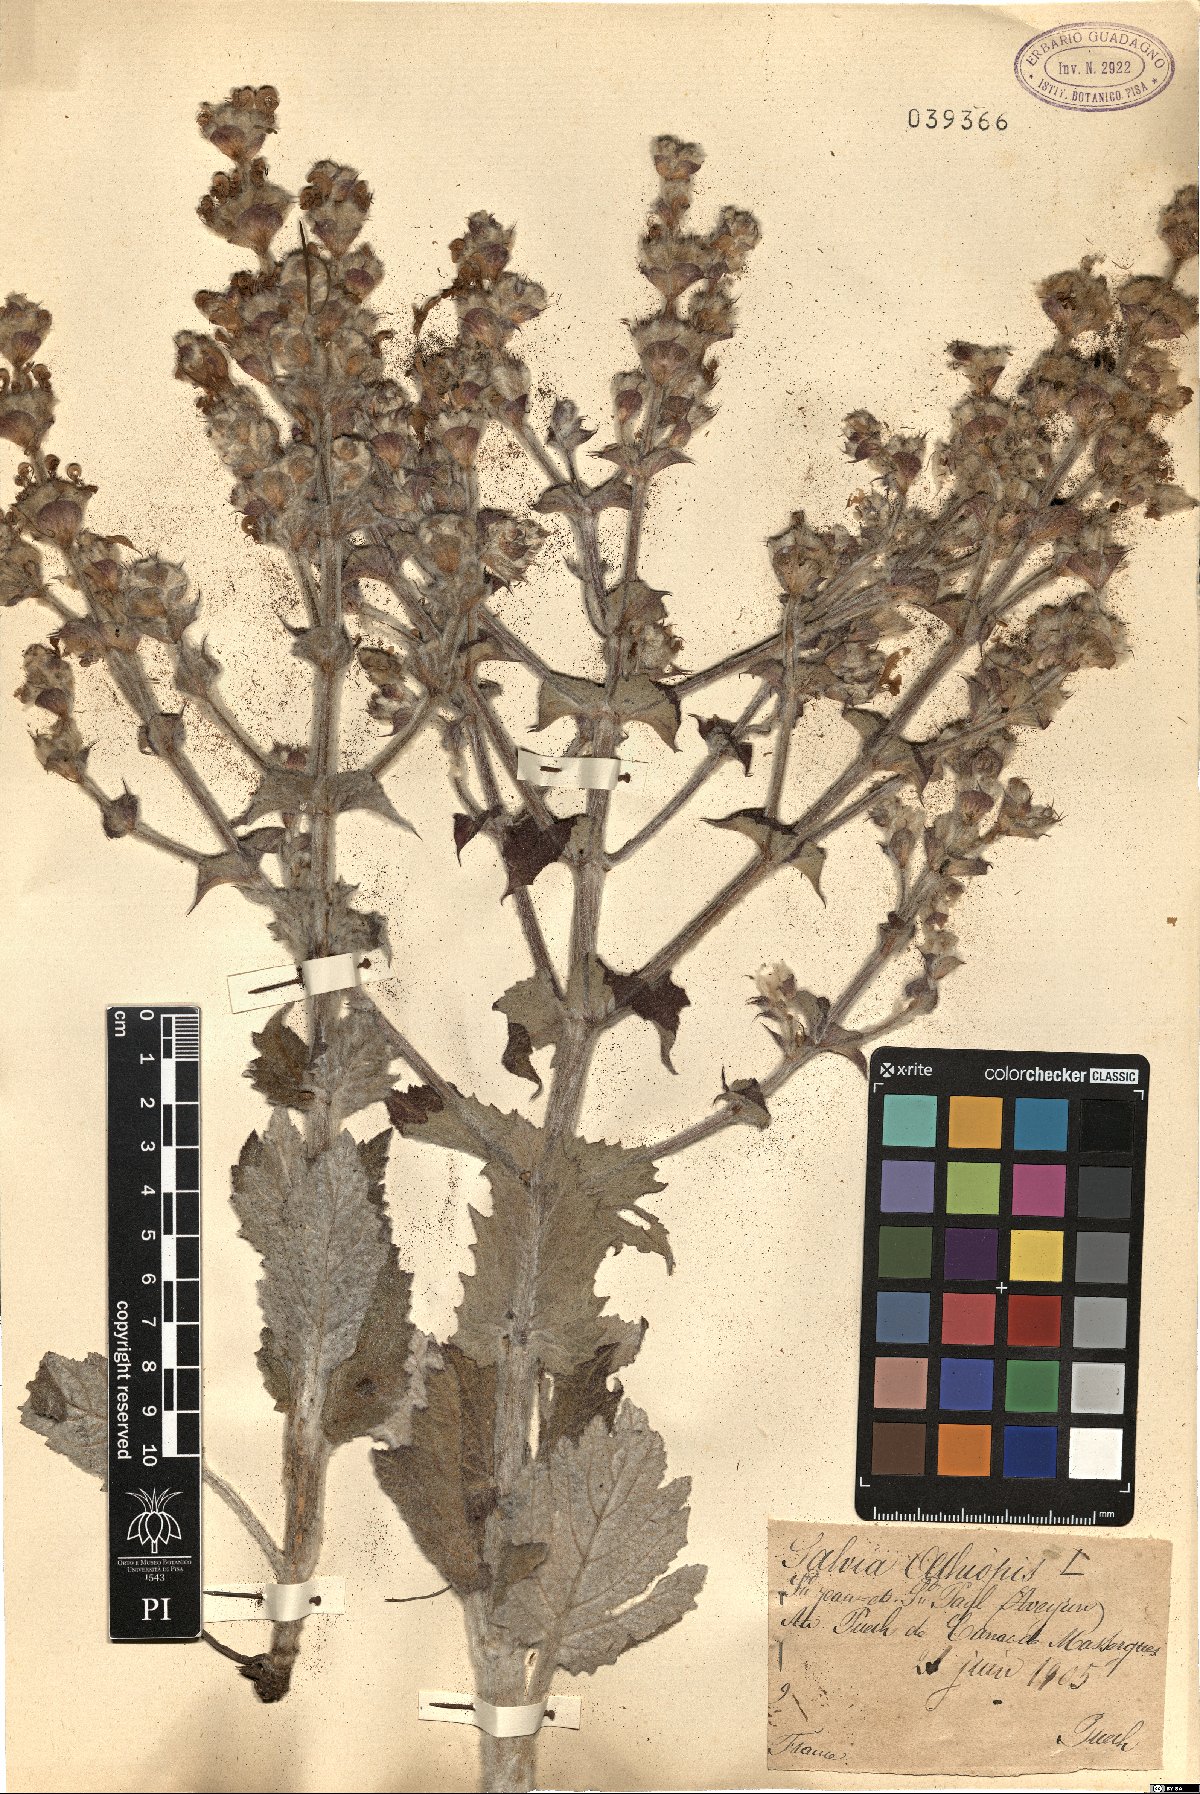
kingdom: Plantae
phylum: Tracheophyta
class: Magnoliopsida
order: Lamiales
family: Lamiaceae
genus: Salvia
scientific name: Salvia aethiopis
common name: Mediterranean sage
